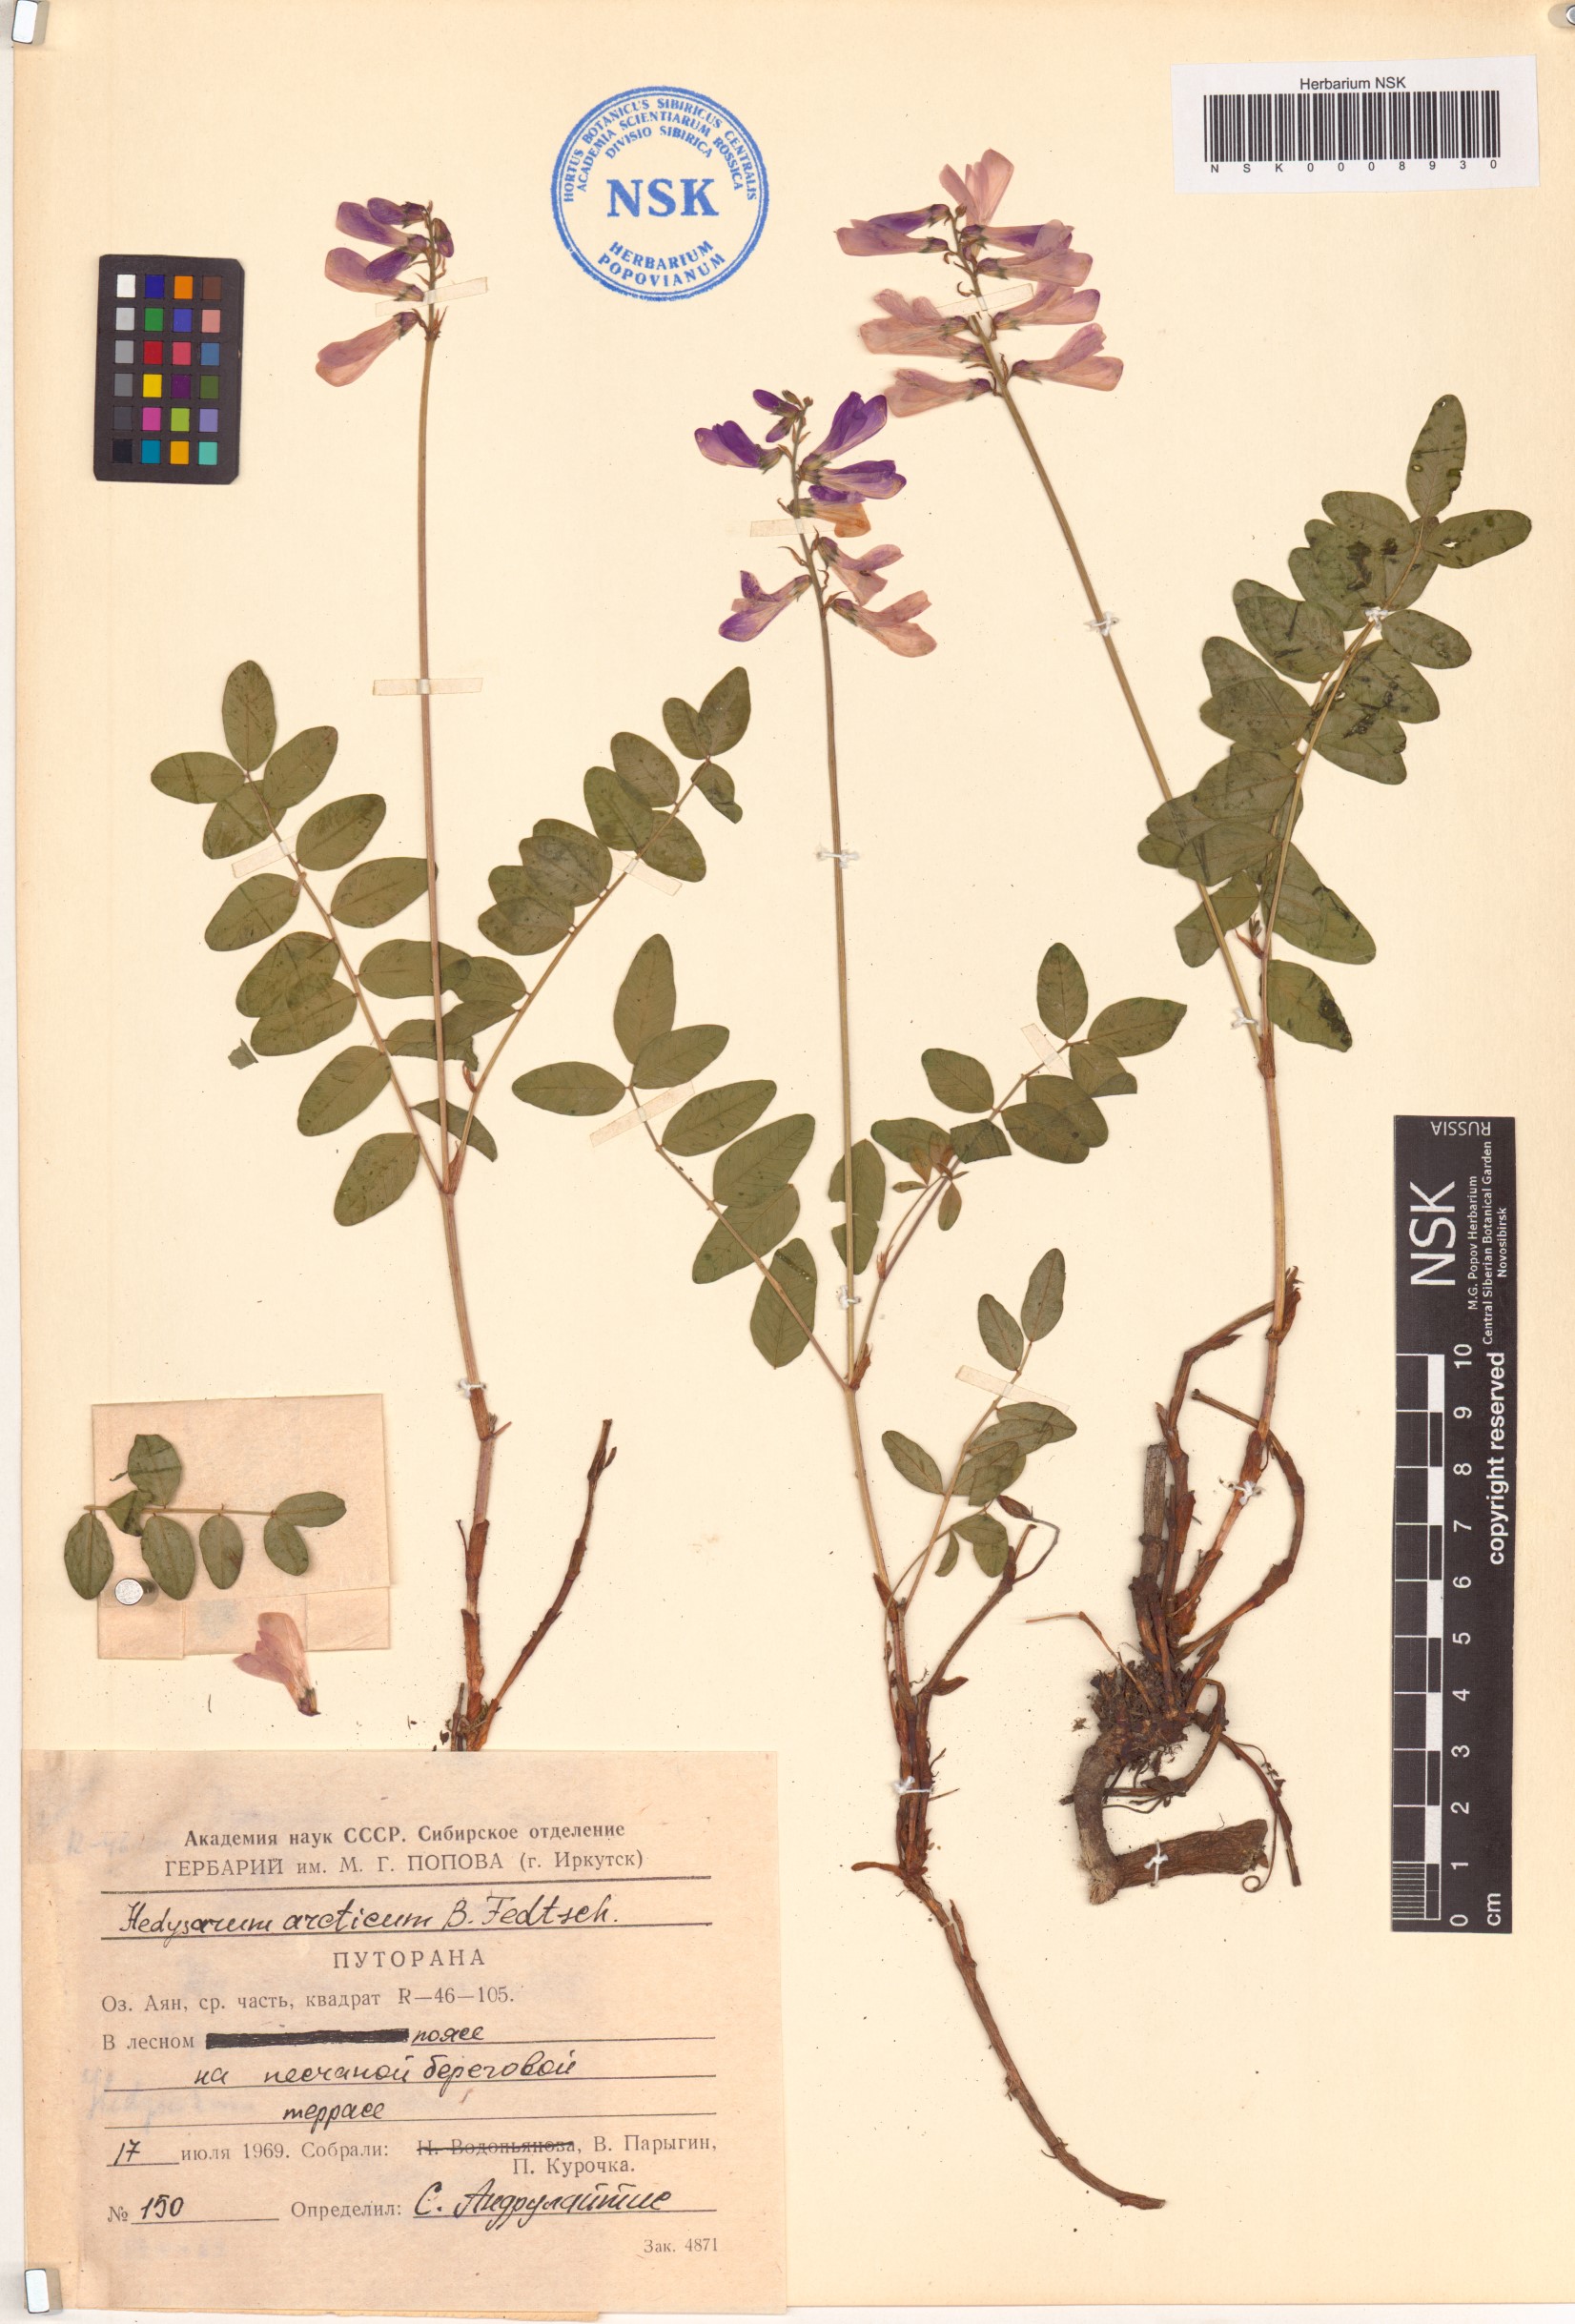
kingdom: Plantae
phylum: Tracheophyta
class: Magnoliopsida
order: Fabales
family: Fabaceae
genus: Hedysarum
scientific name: Hedysarum hedysaroides
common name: Alpine french-honeysuckle
